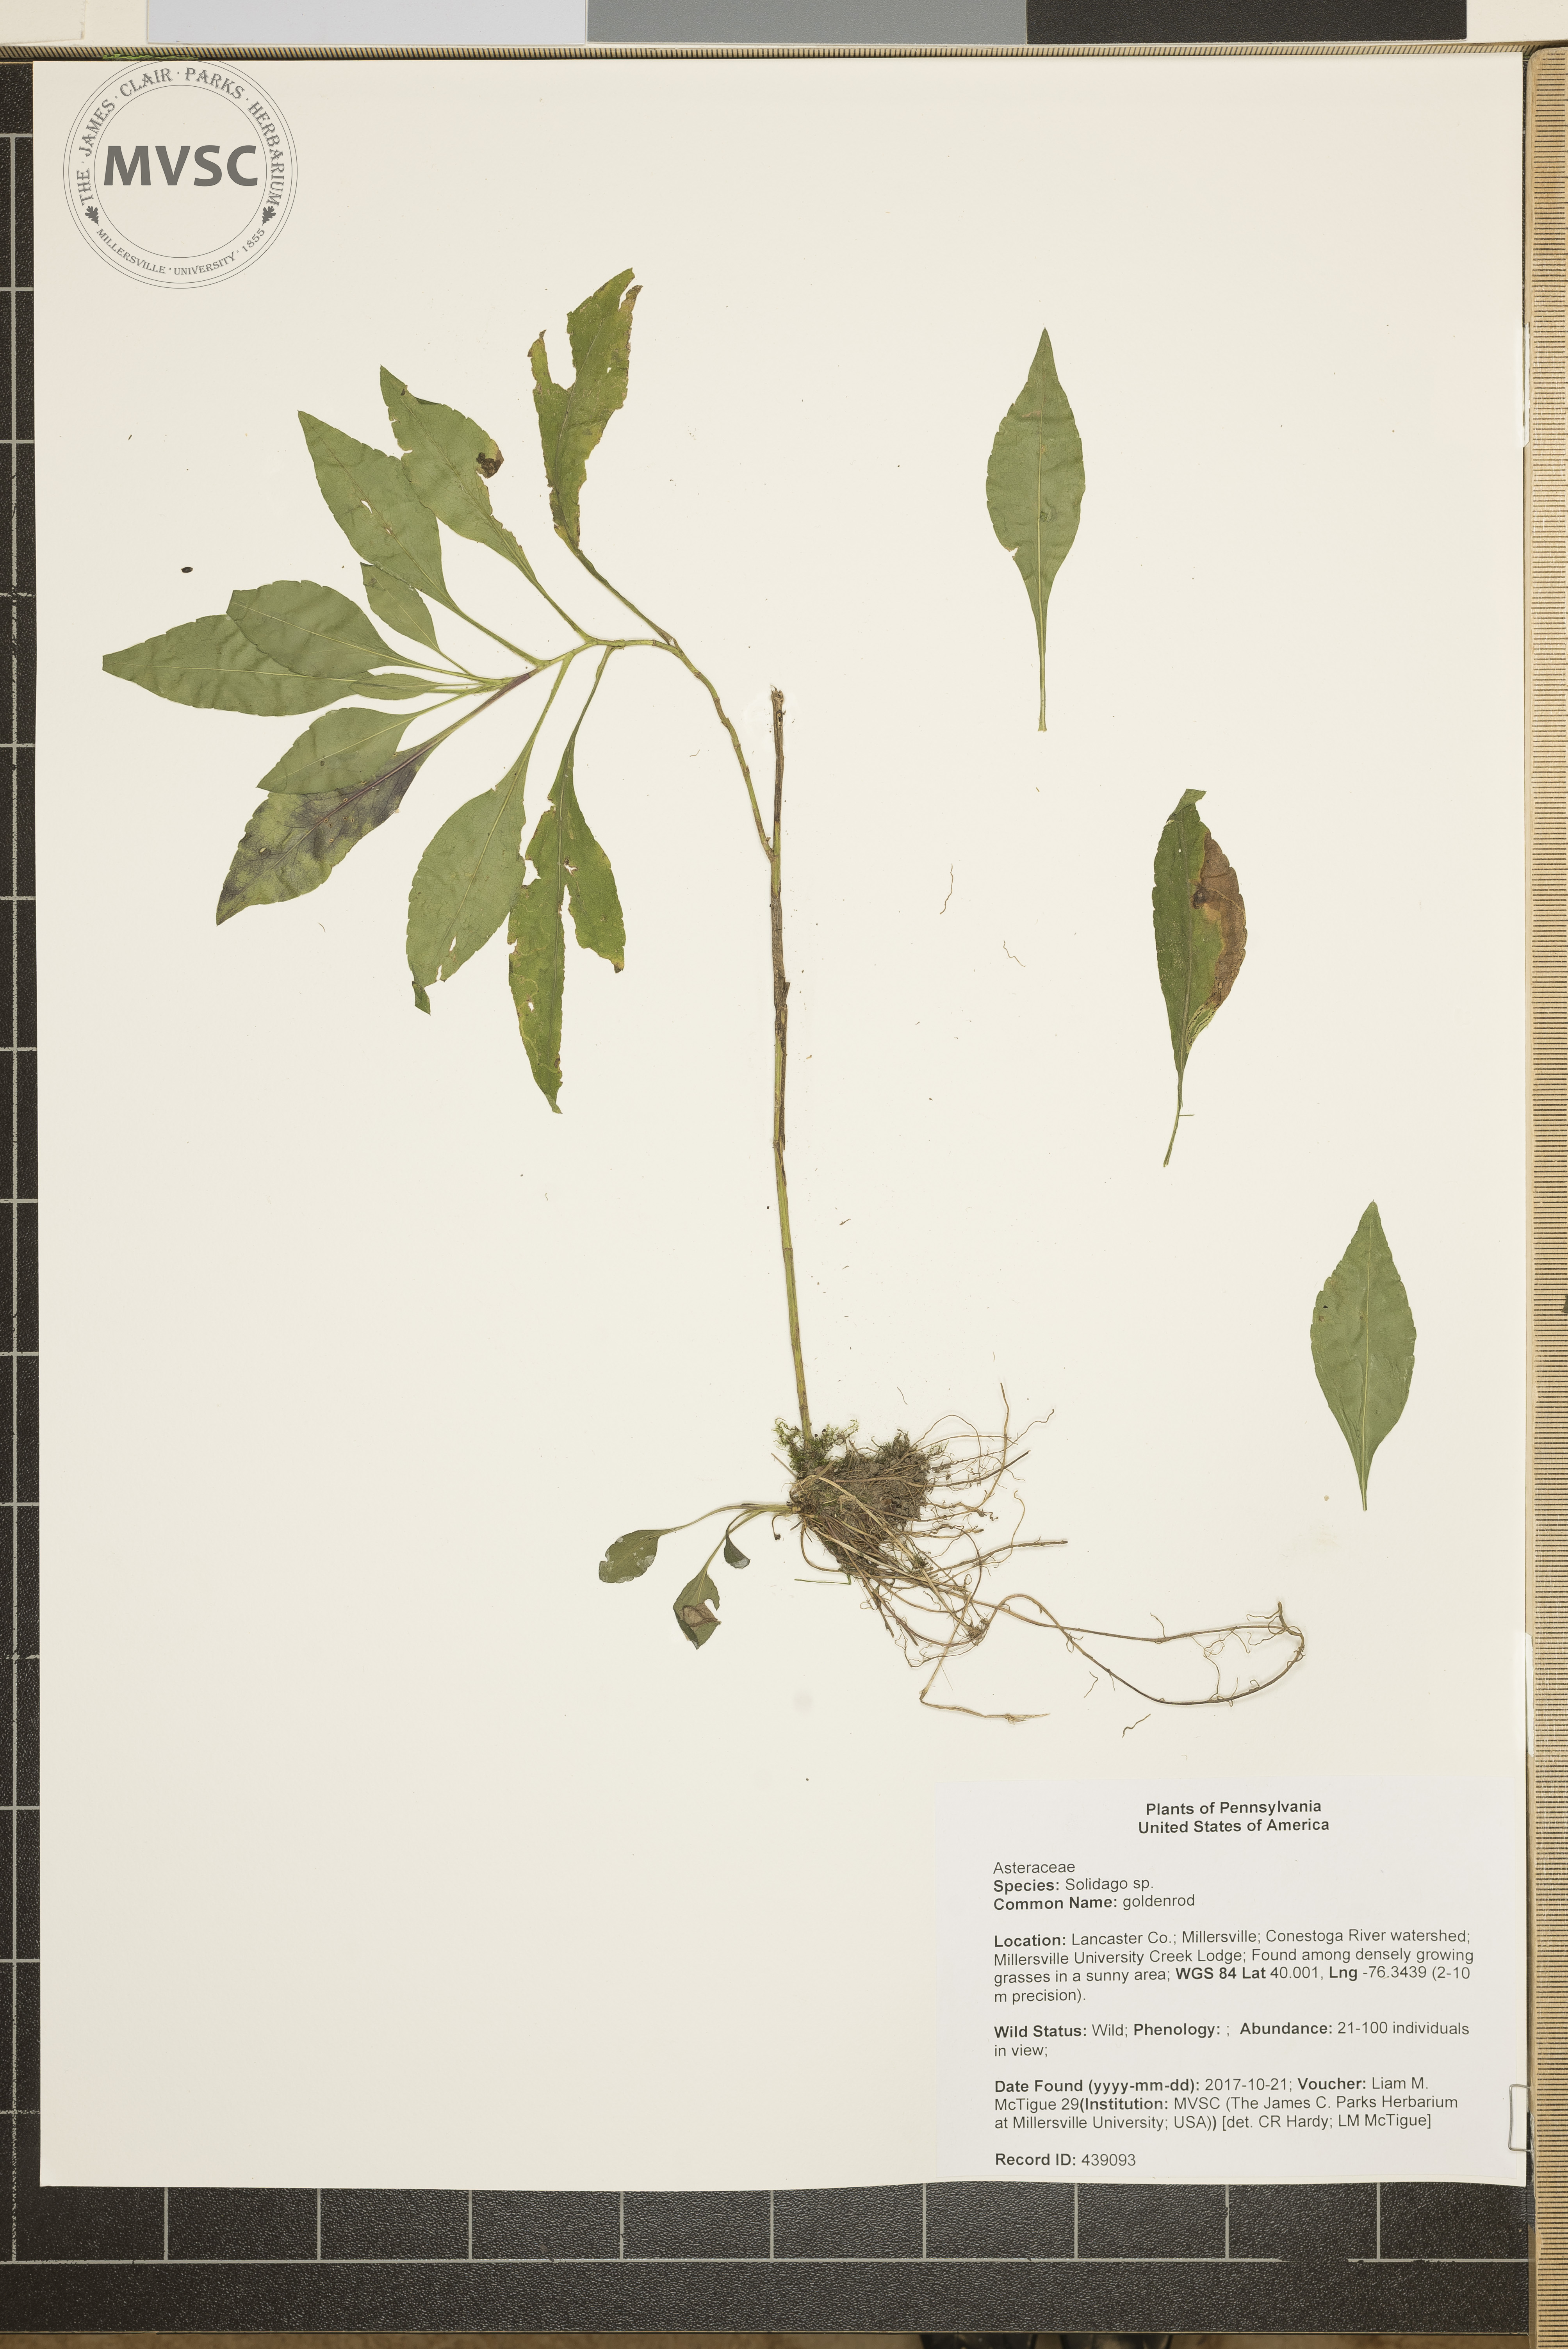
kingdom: Plantae
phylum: Tracheophyta
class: Magnoliopsida
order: Asterales
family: Asteraceae
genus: Solidago
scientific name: Solidago
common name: goldenrod
